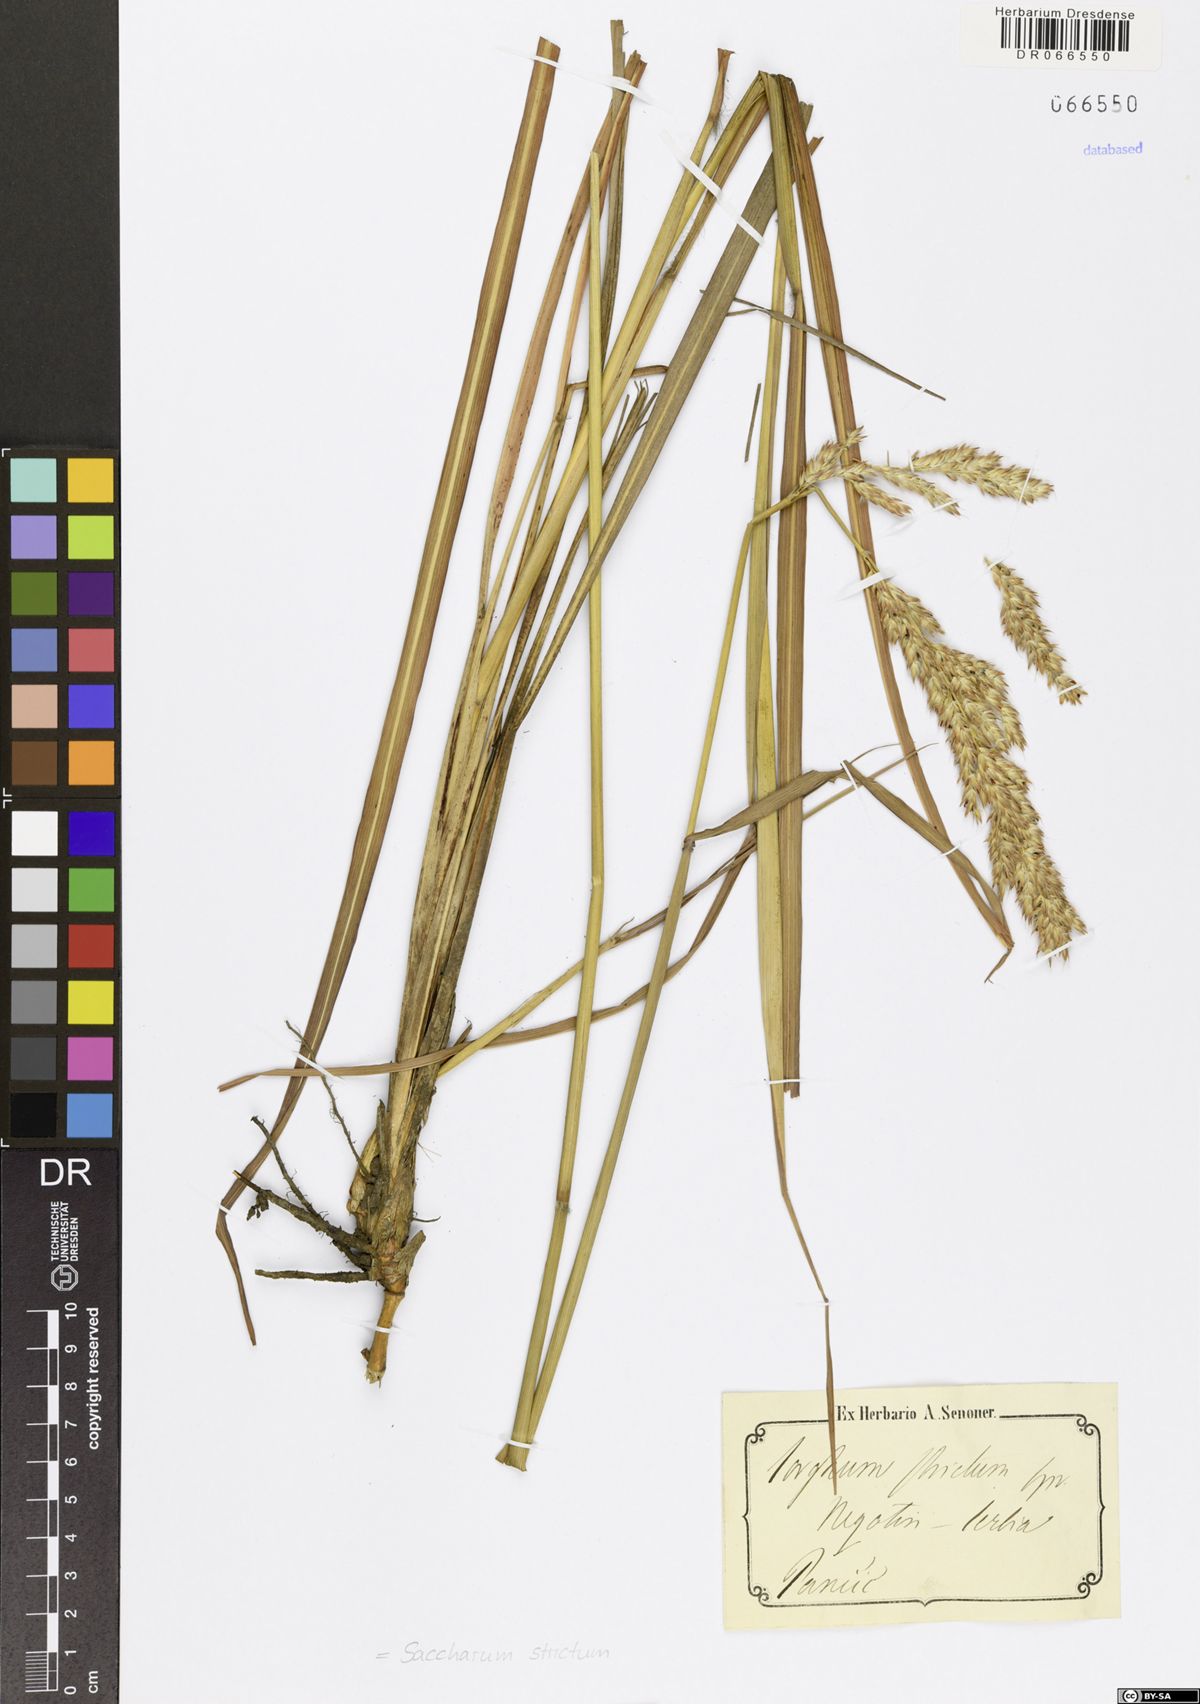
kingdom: Plantae
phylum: Tracheophyta
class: Liliopsida
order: Poales
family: Poaceae
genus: Tripidium
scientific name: Tripidium strictum
